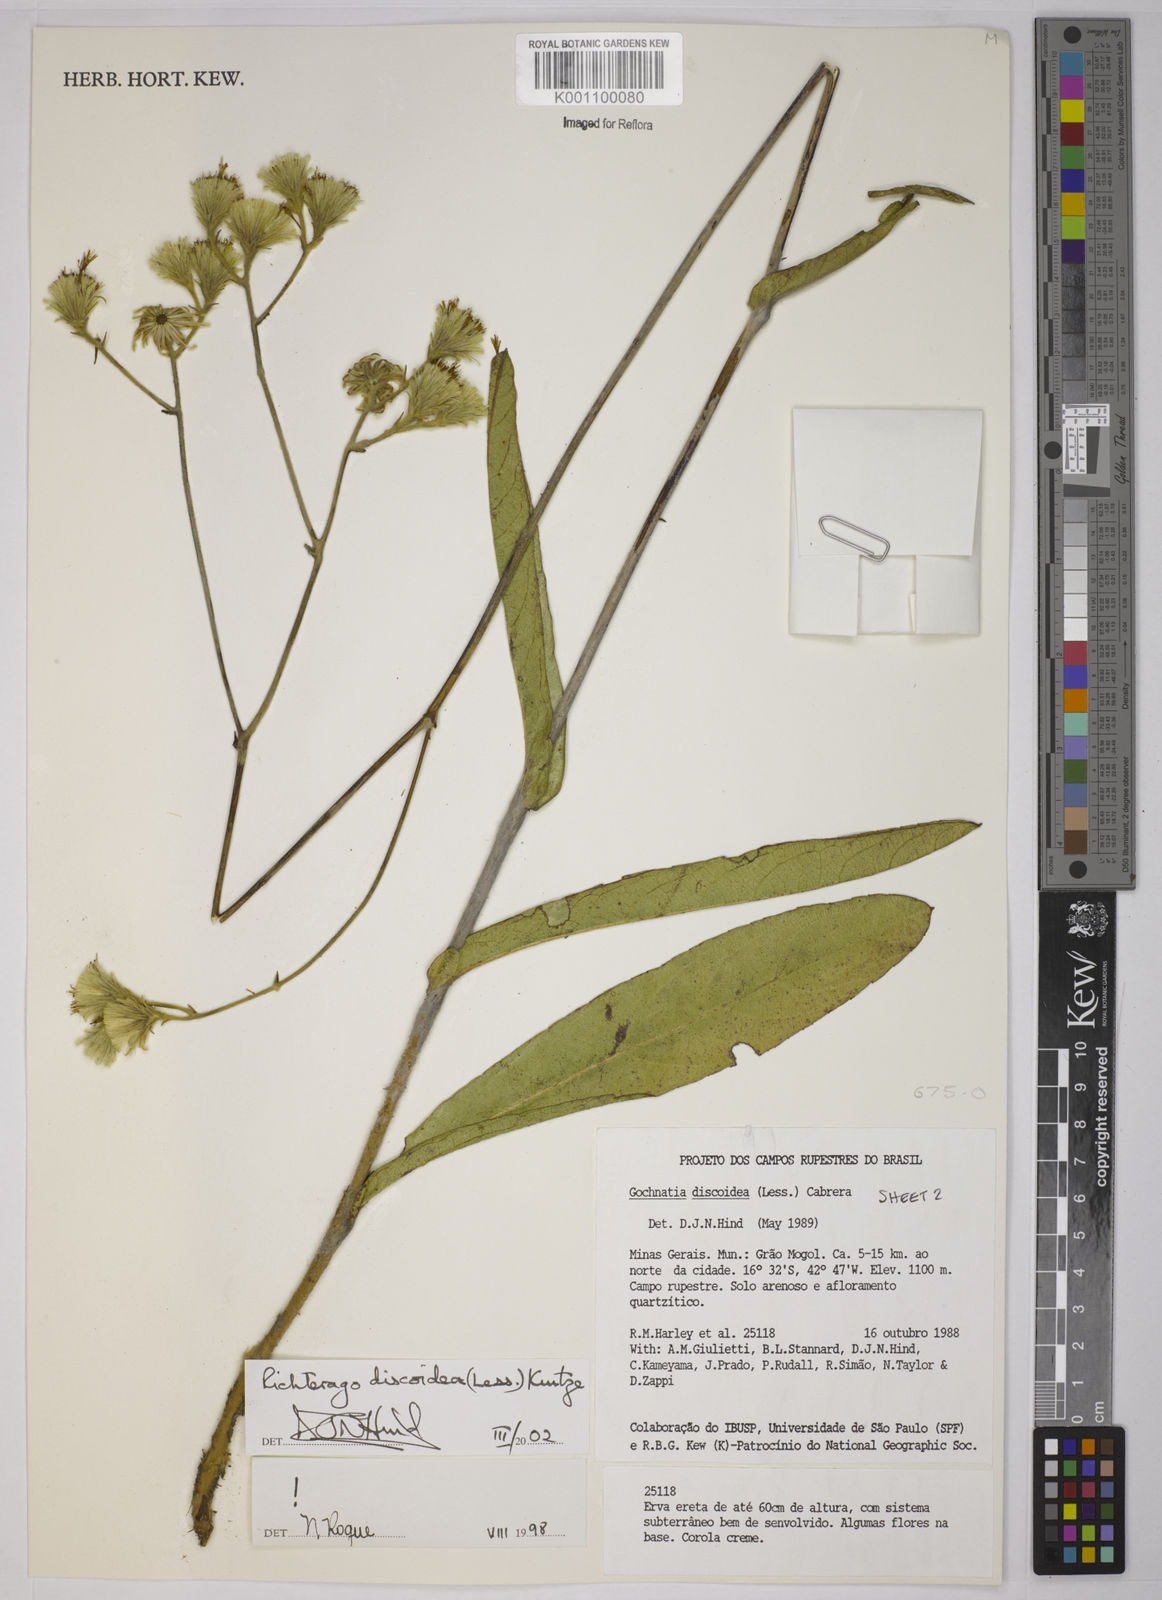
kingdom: Plantae
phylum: Tracheophyta
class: Magnoliopsida
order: Asterales
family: Asteraceae
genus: Richterago
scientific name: Richterago discoidea
